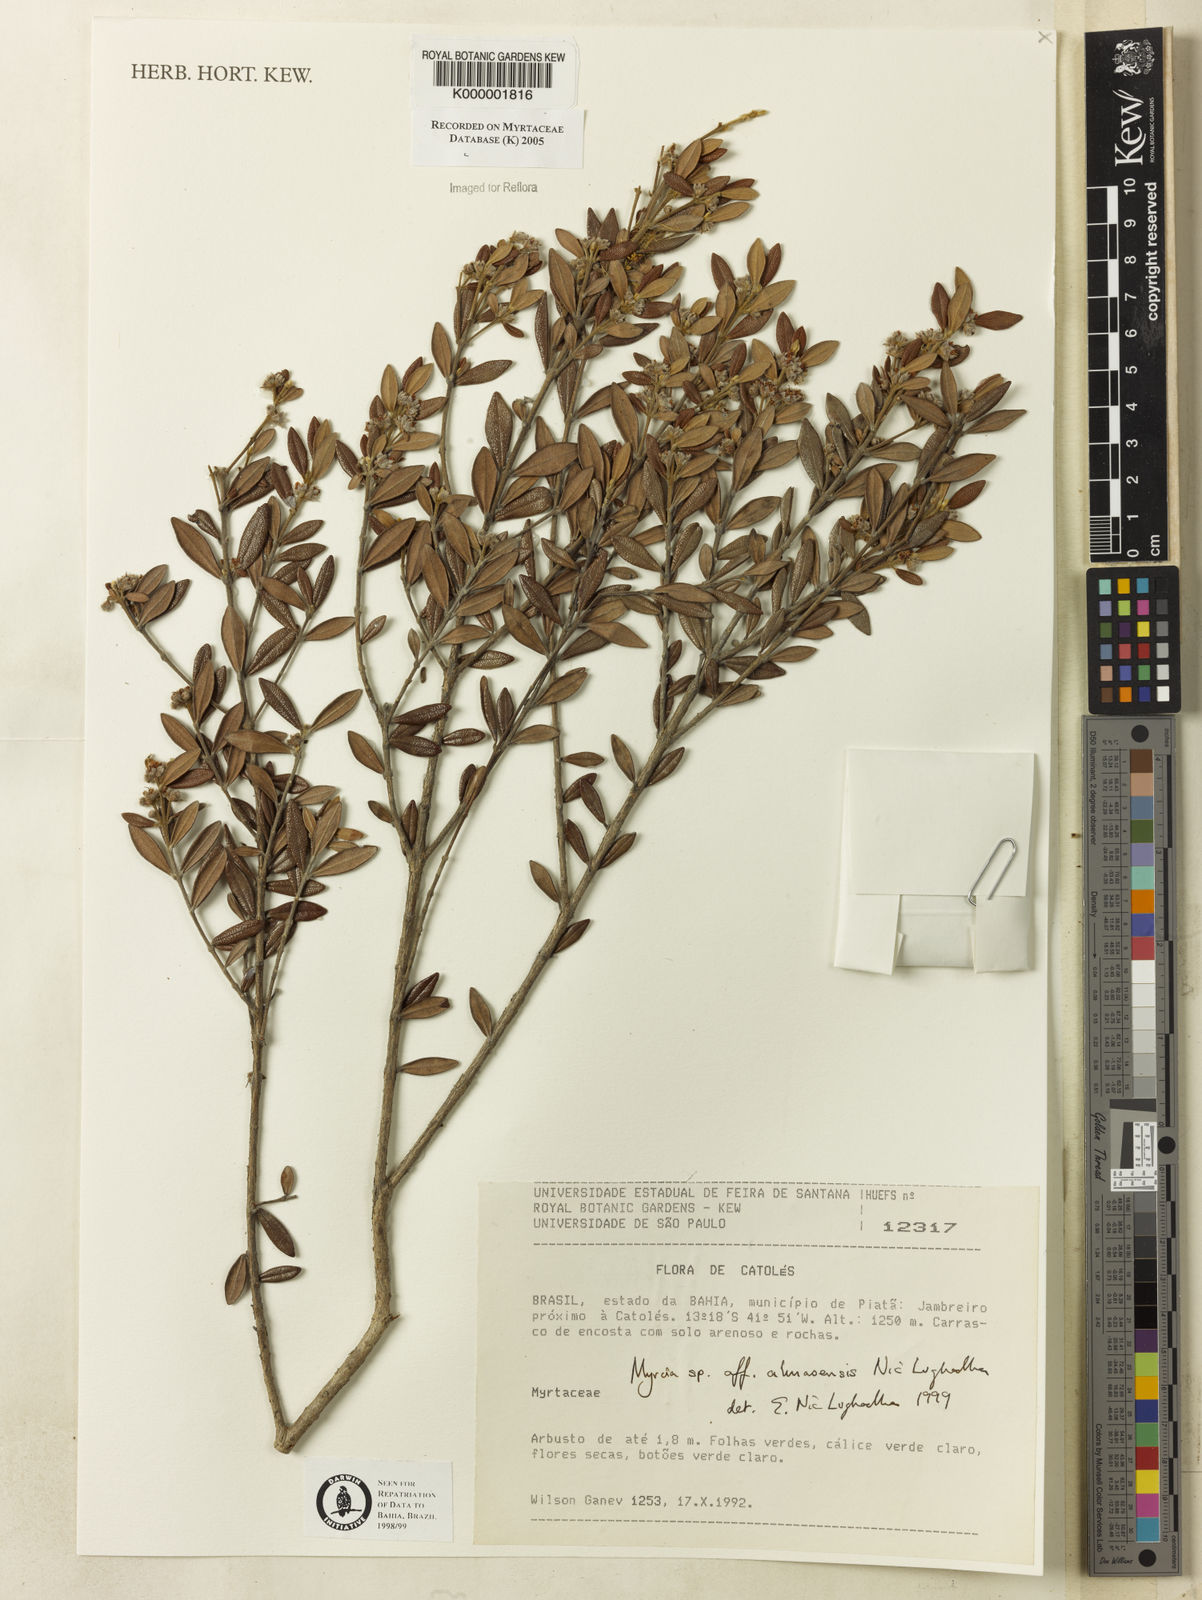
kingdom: Plantae
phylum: Tracheophyta
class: Magnoliopsida
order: Myrtales
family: Myrtaceae
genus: Myrcia
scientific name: Myrcia almasensis
